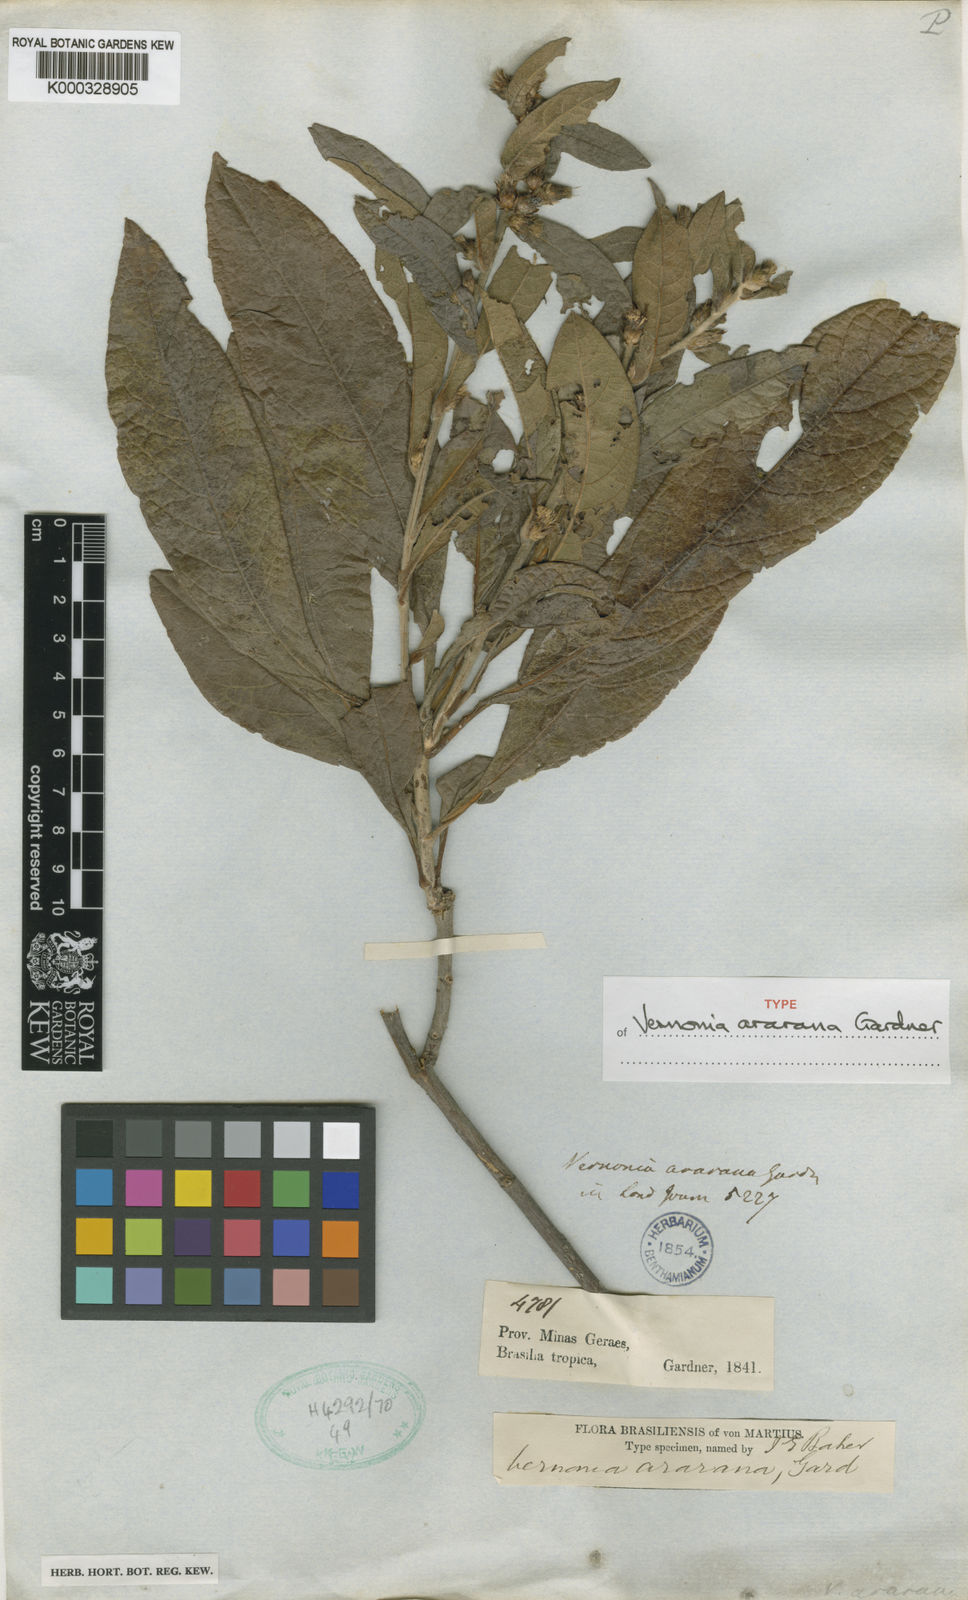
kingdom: Plantae
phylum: Tracheophyta
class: Magnoliopsida
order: Asterales
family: Asteraceae
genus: Acilepidopsis
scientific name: Acilepidopsis echitifolia
